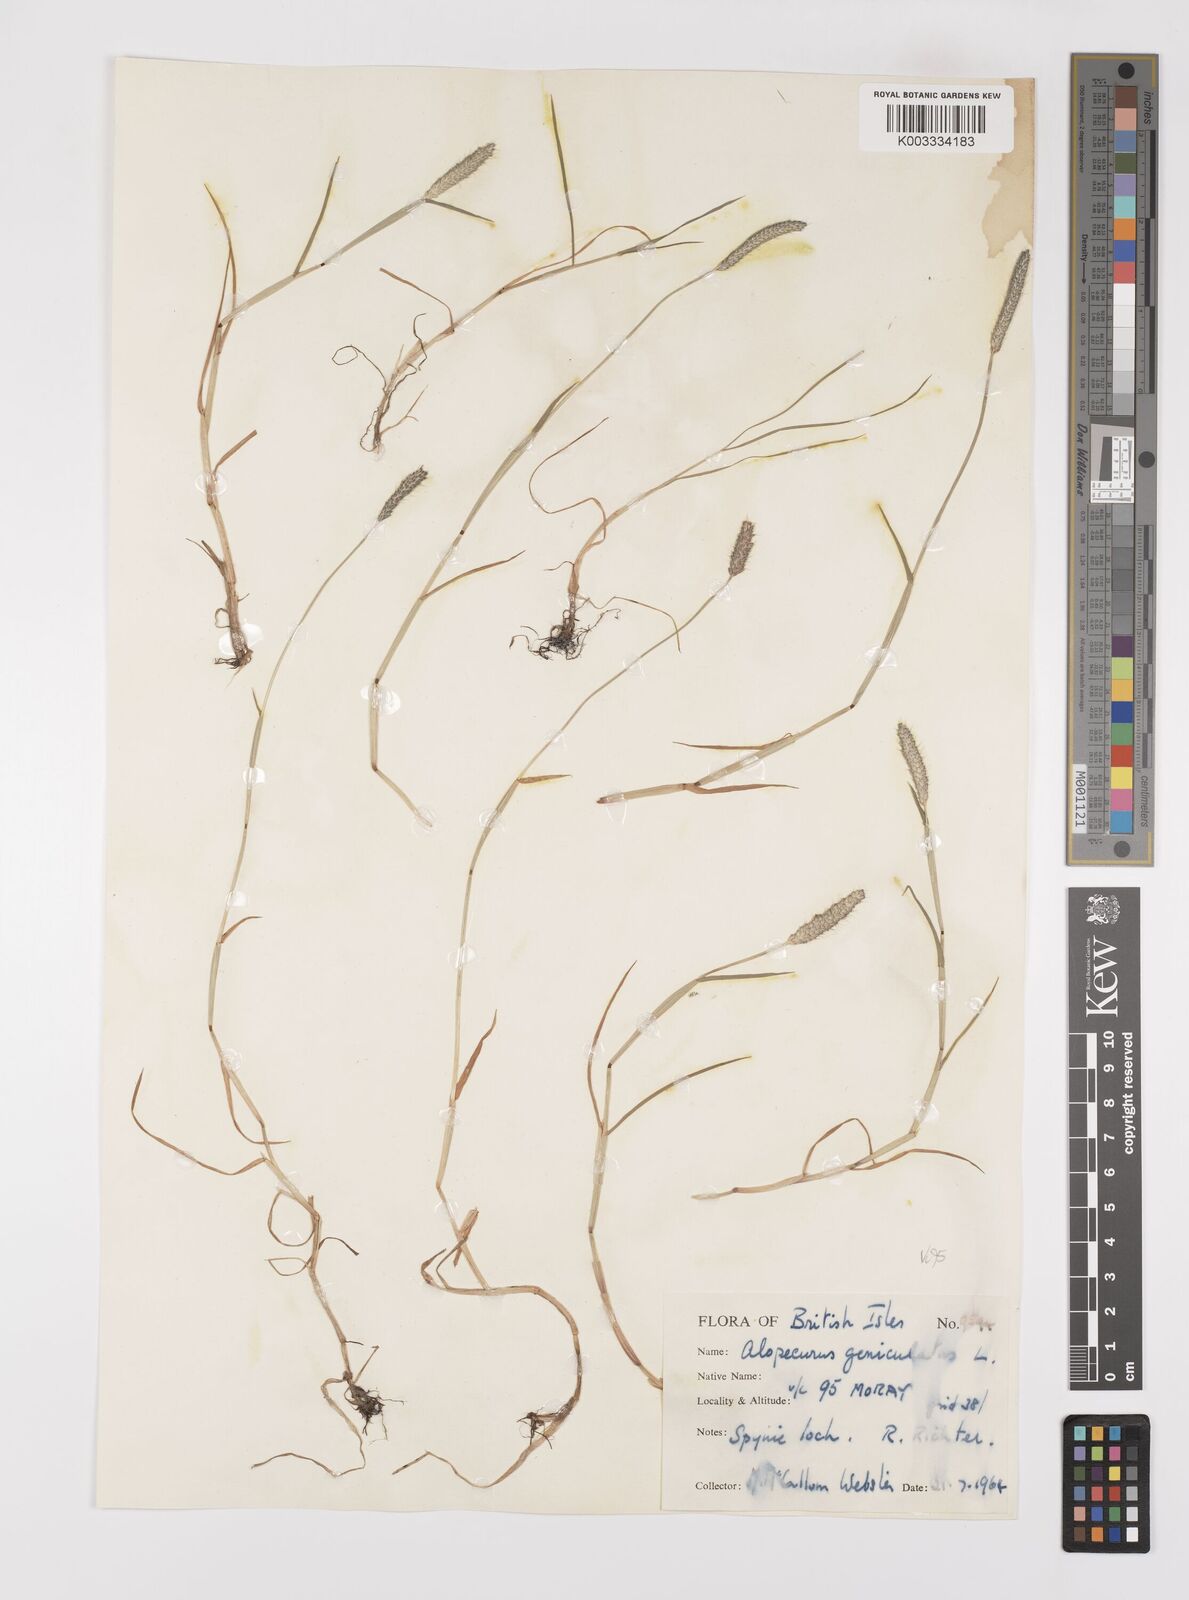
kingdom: Plantae
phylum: Tracheophyta
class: Liliopsida
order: Poales
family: Poaceae
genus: Alopecurus
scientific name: Alopecurus geniculatus
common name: Water foxtail
